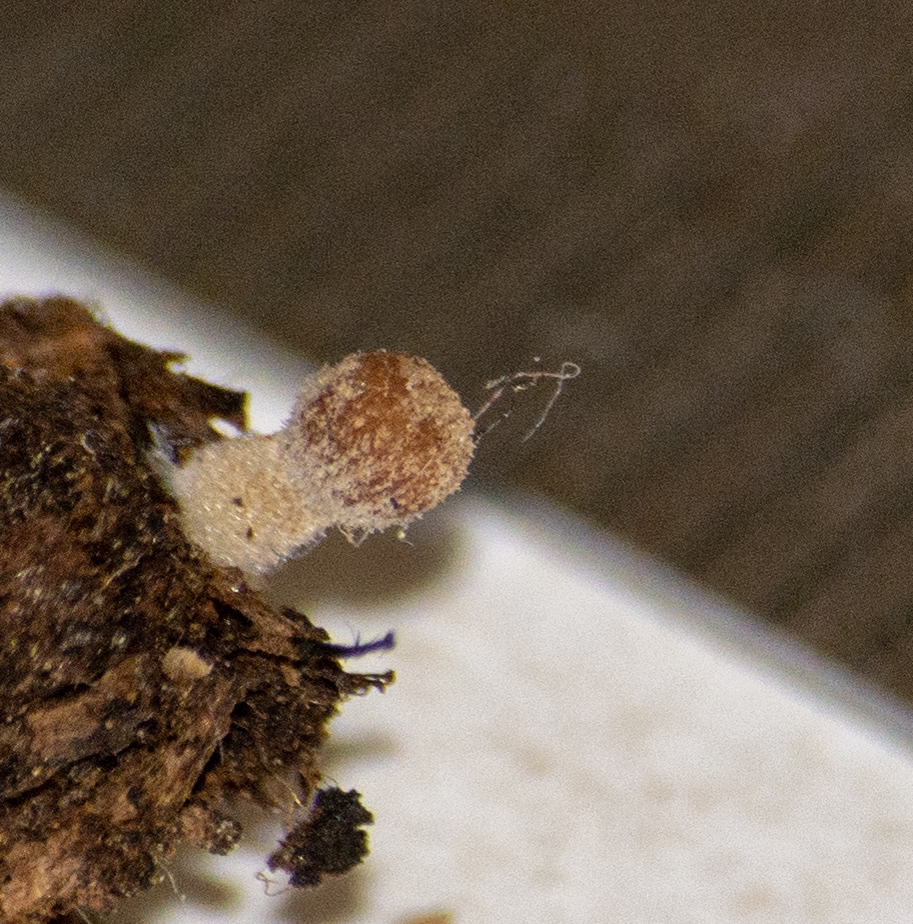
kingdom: Fungi
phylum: Basidiomycota
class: Agaricomycetes
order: Agaricales
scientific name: Agaricales
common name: champignonordenen
